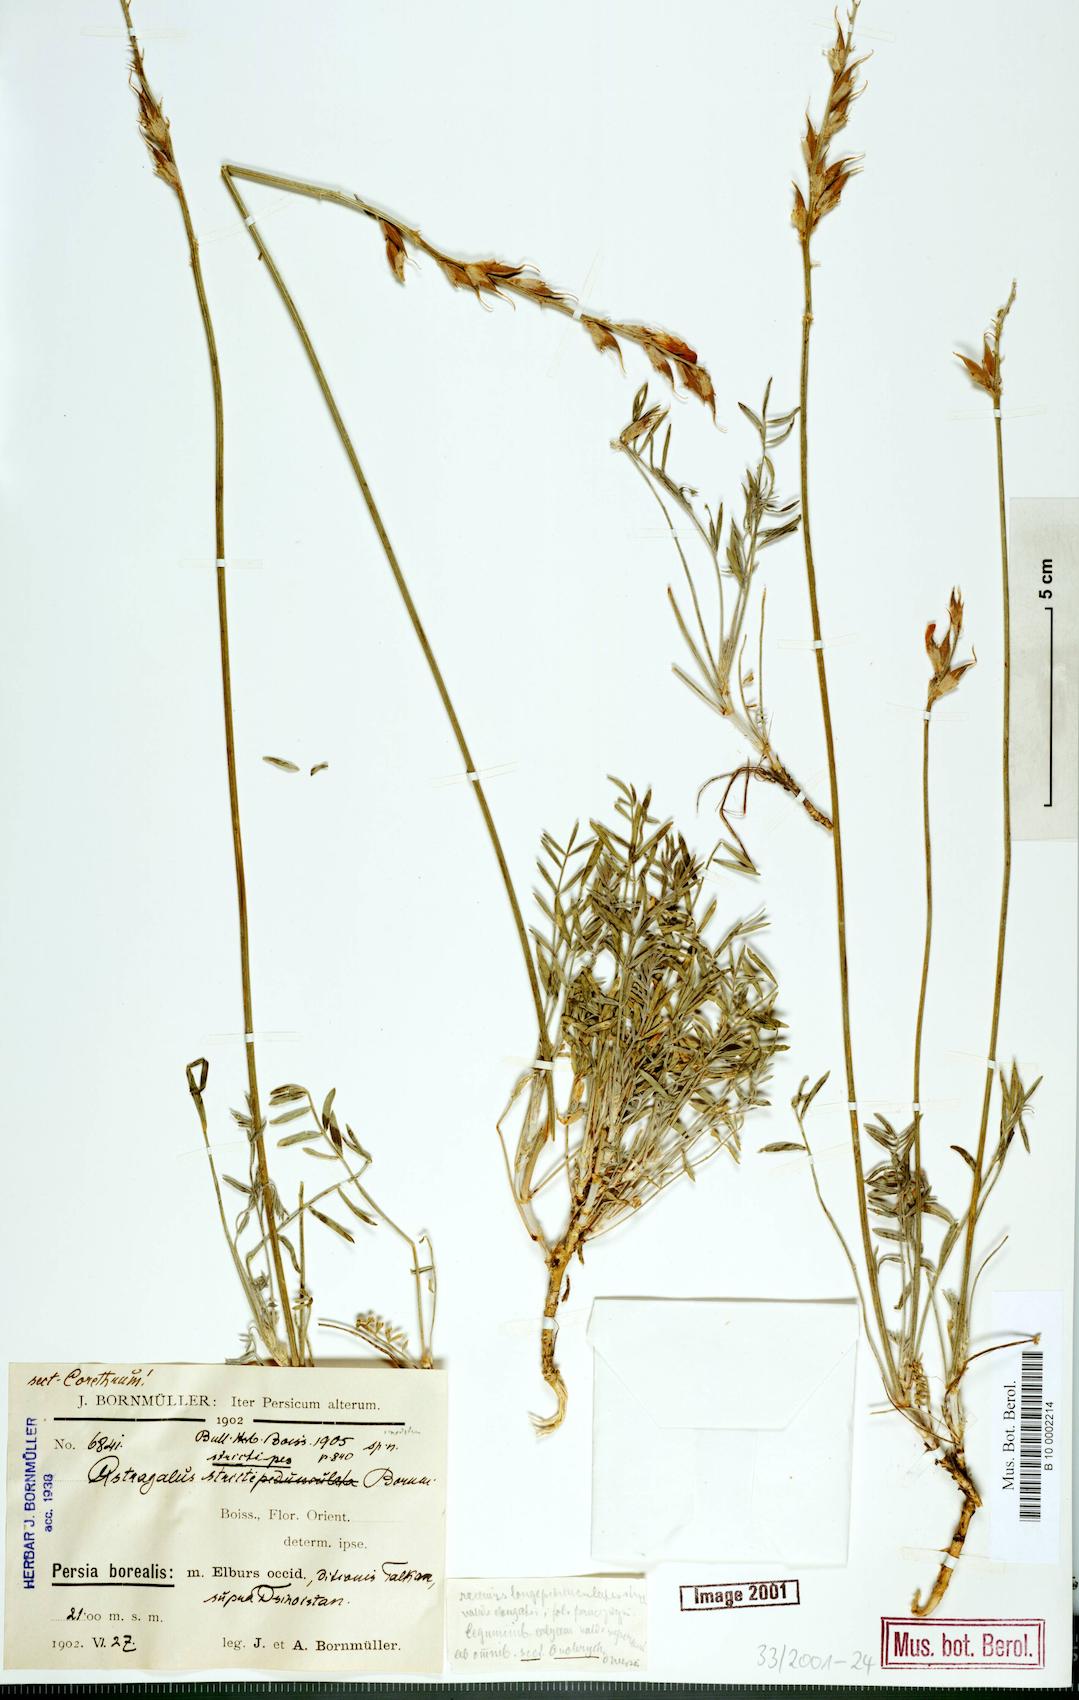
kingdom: Plantae
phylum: Tracheophyta
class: Magnoliopsida
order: Fabales
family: Fabaceae
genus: Astragalus
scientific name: Astragalus lilacinus
